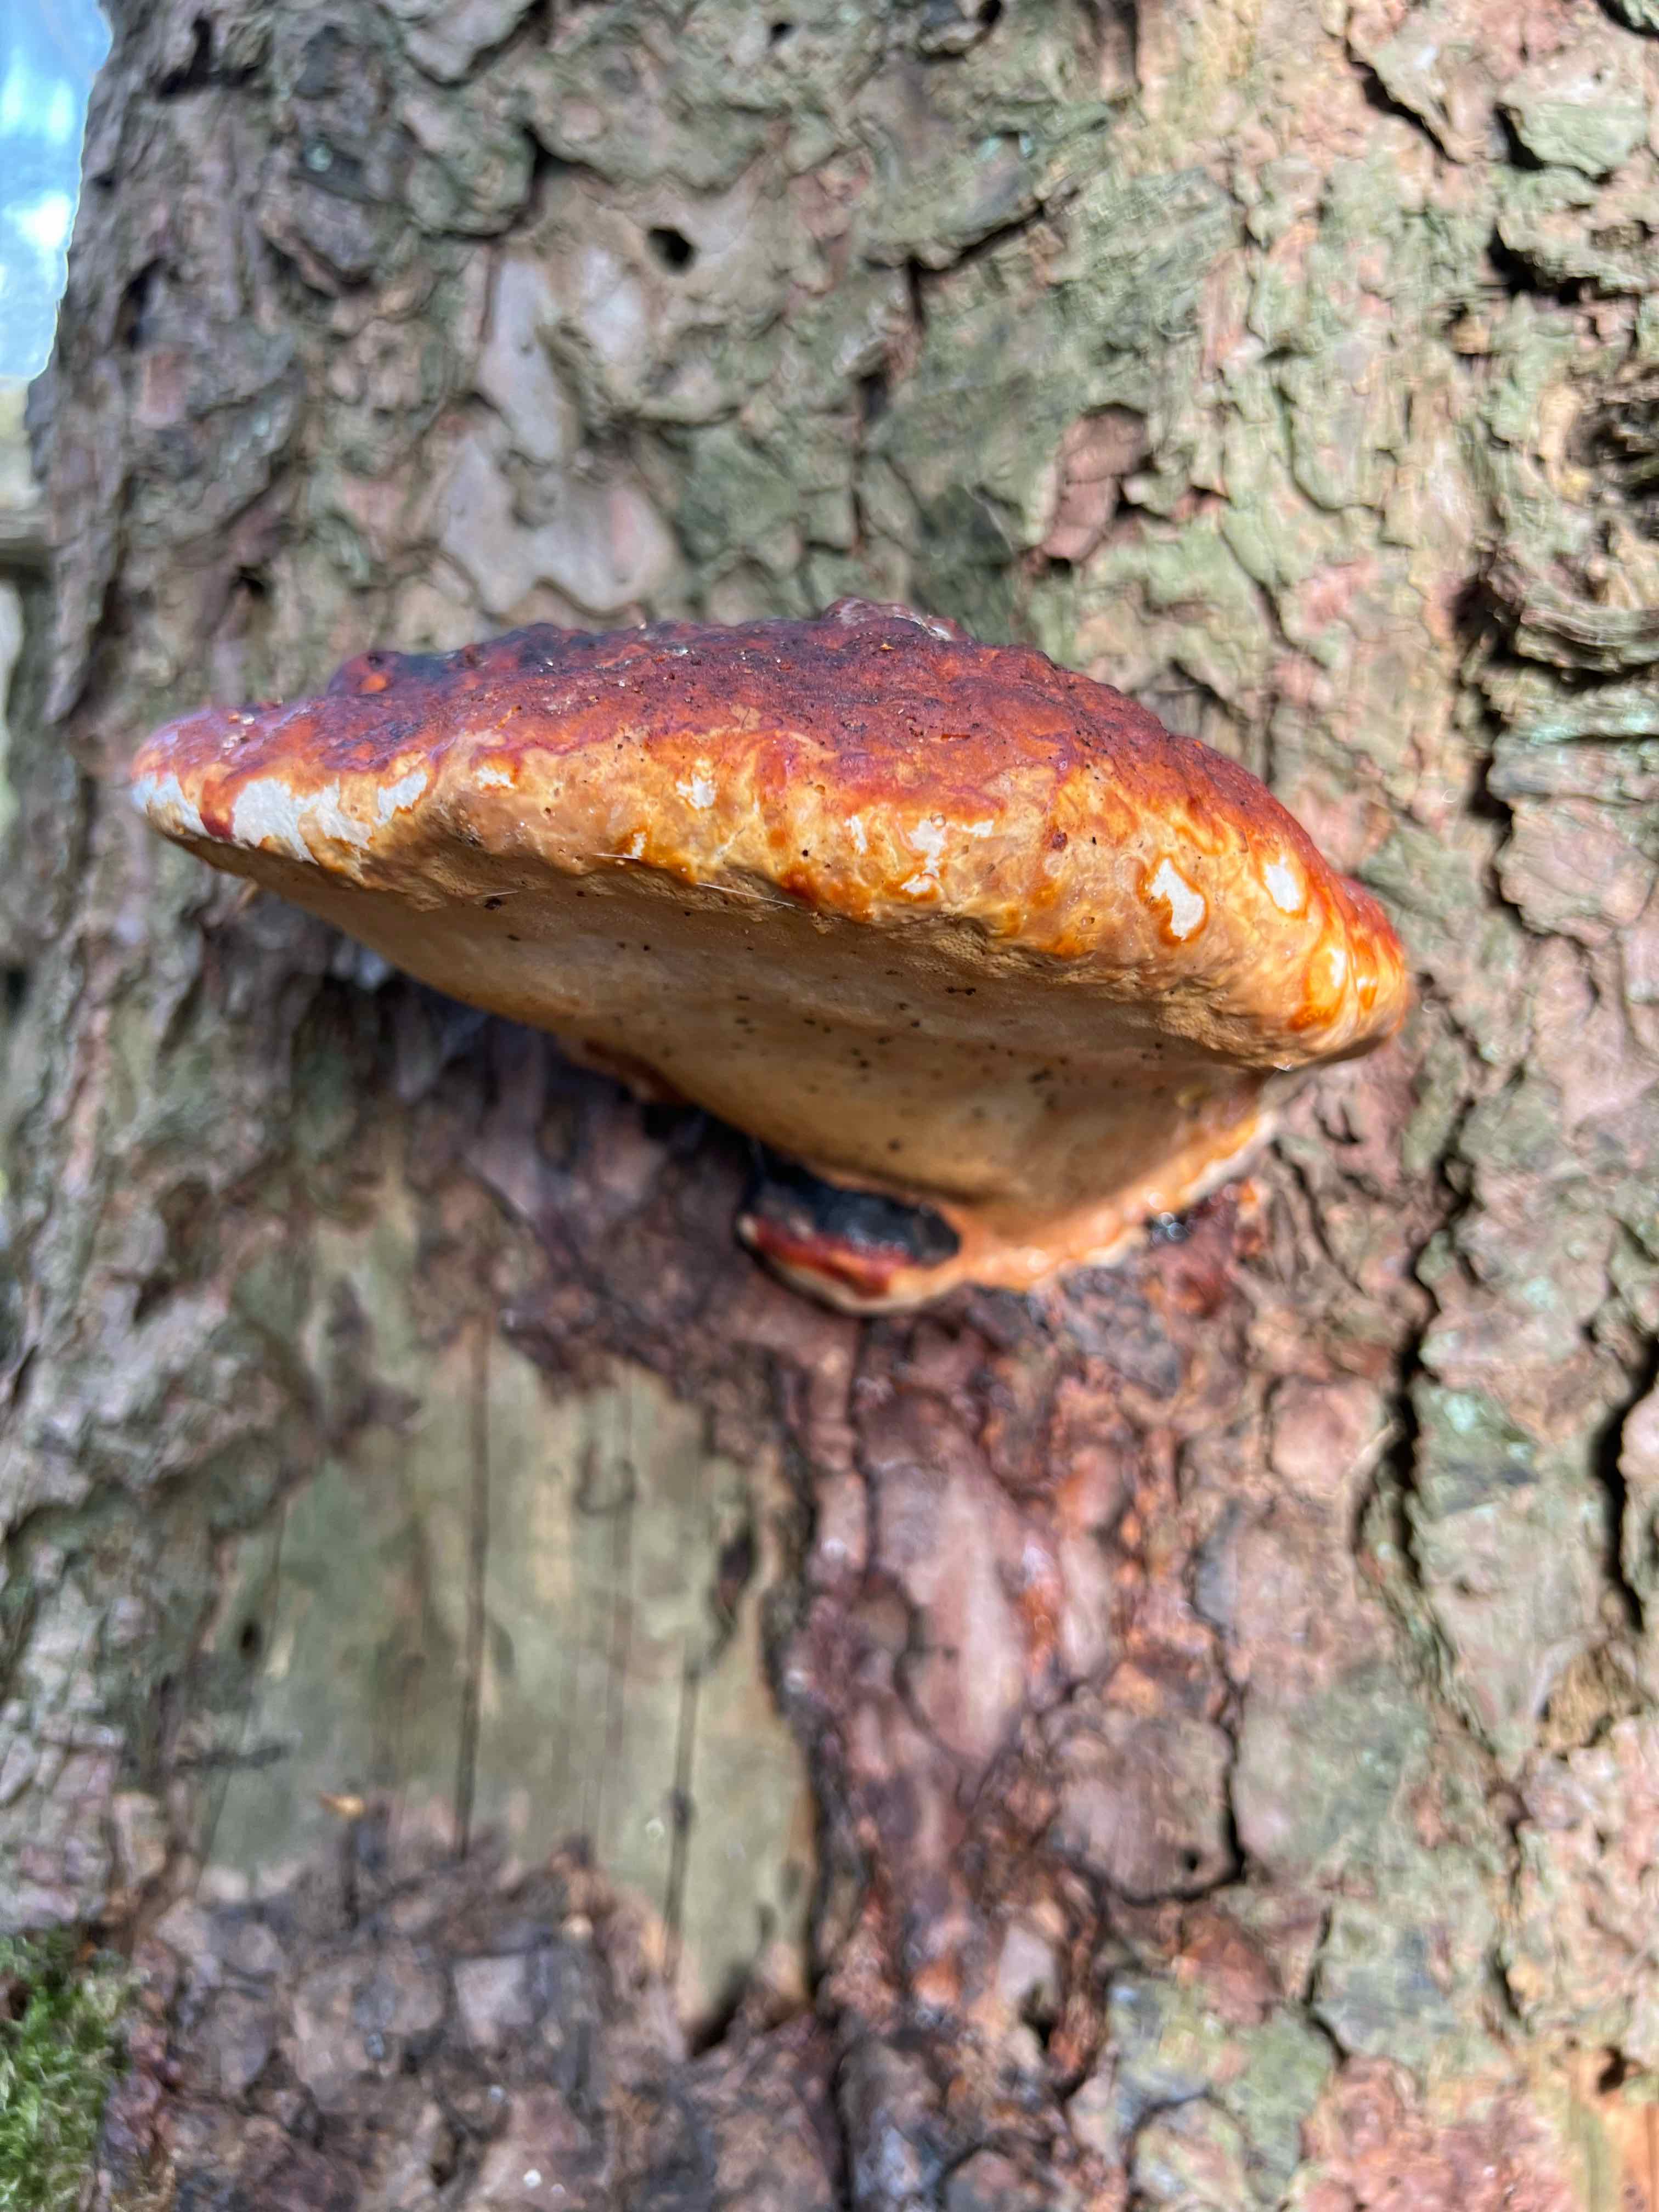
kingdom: Fungi
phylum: Basidiomycota
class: Agaricomycetes
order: Polyporales
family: Fomitopsidaceae
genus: Fomitopsis
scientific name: Fomitopsis pinicola
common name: randbæltet hovporesvamp
